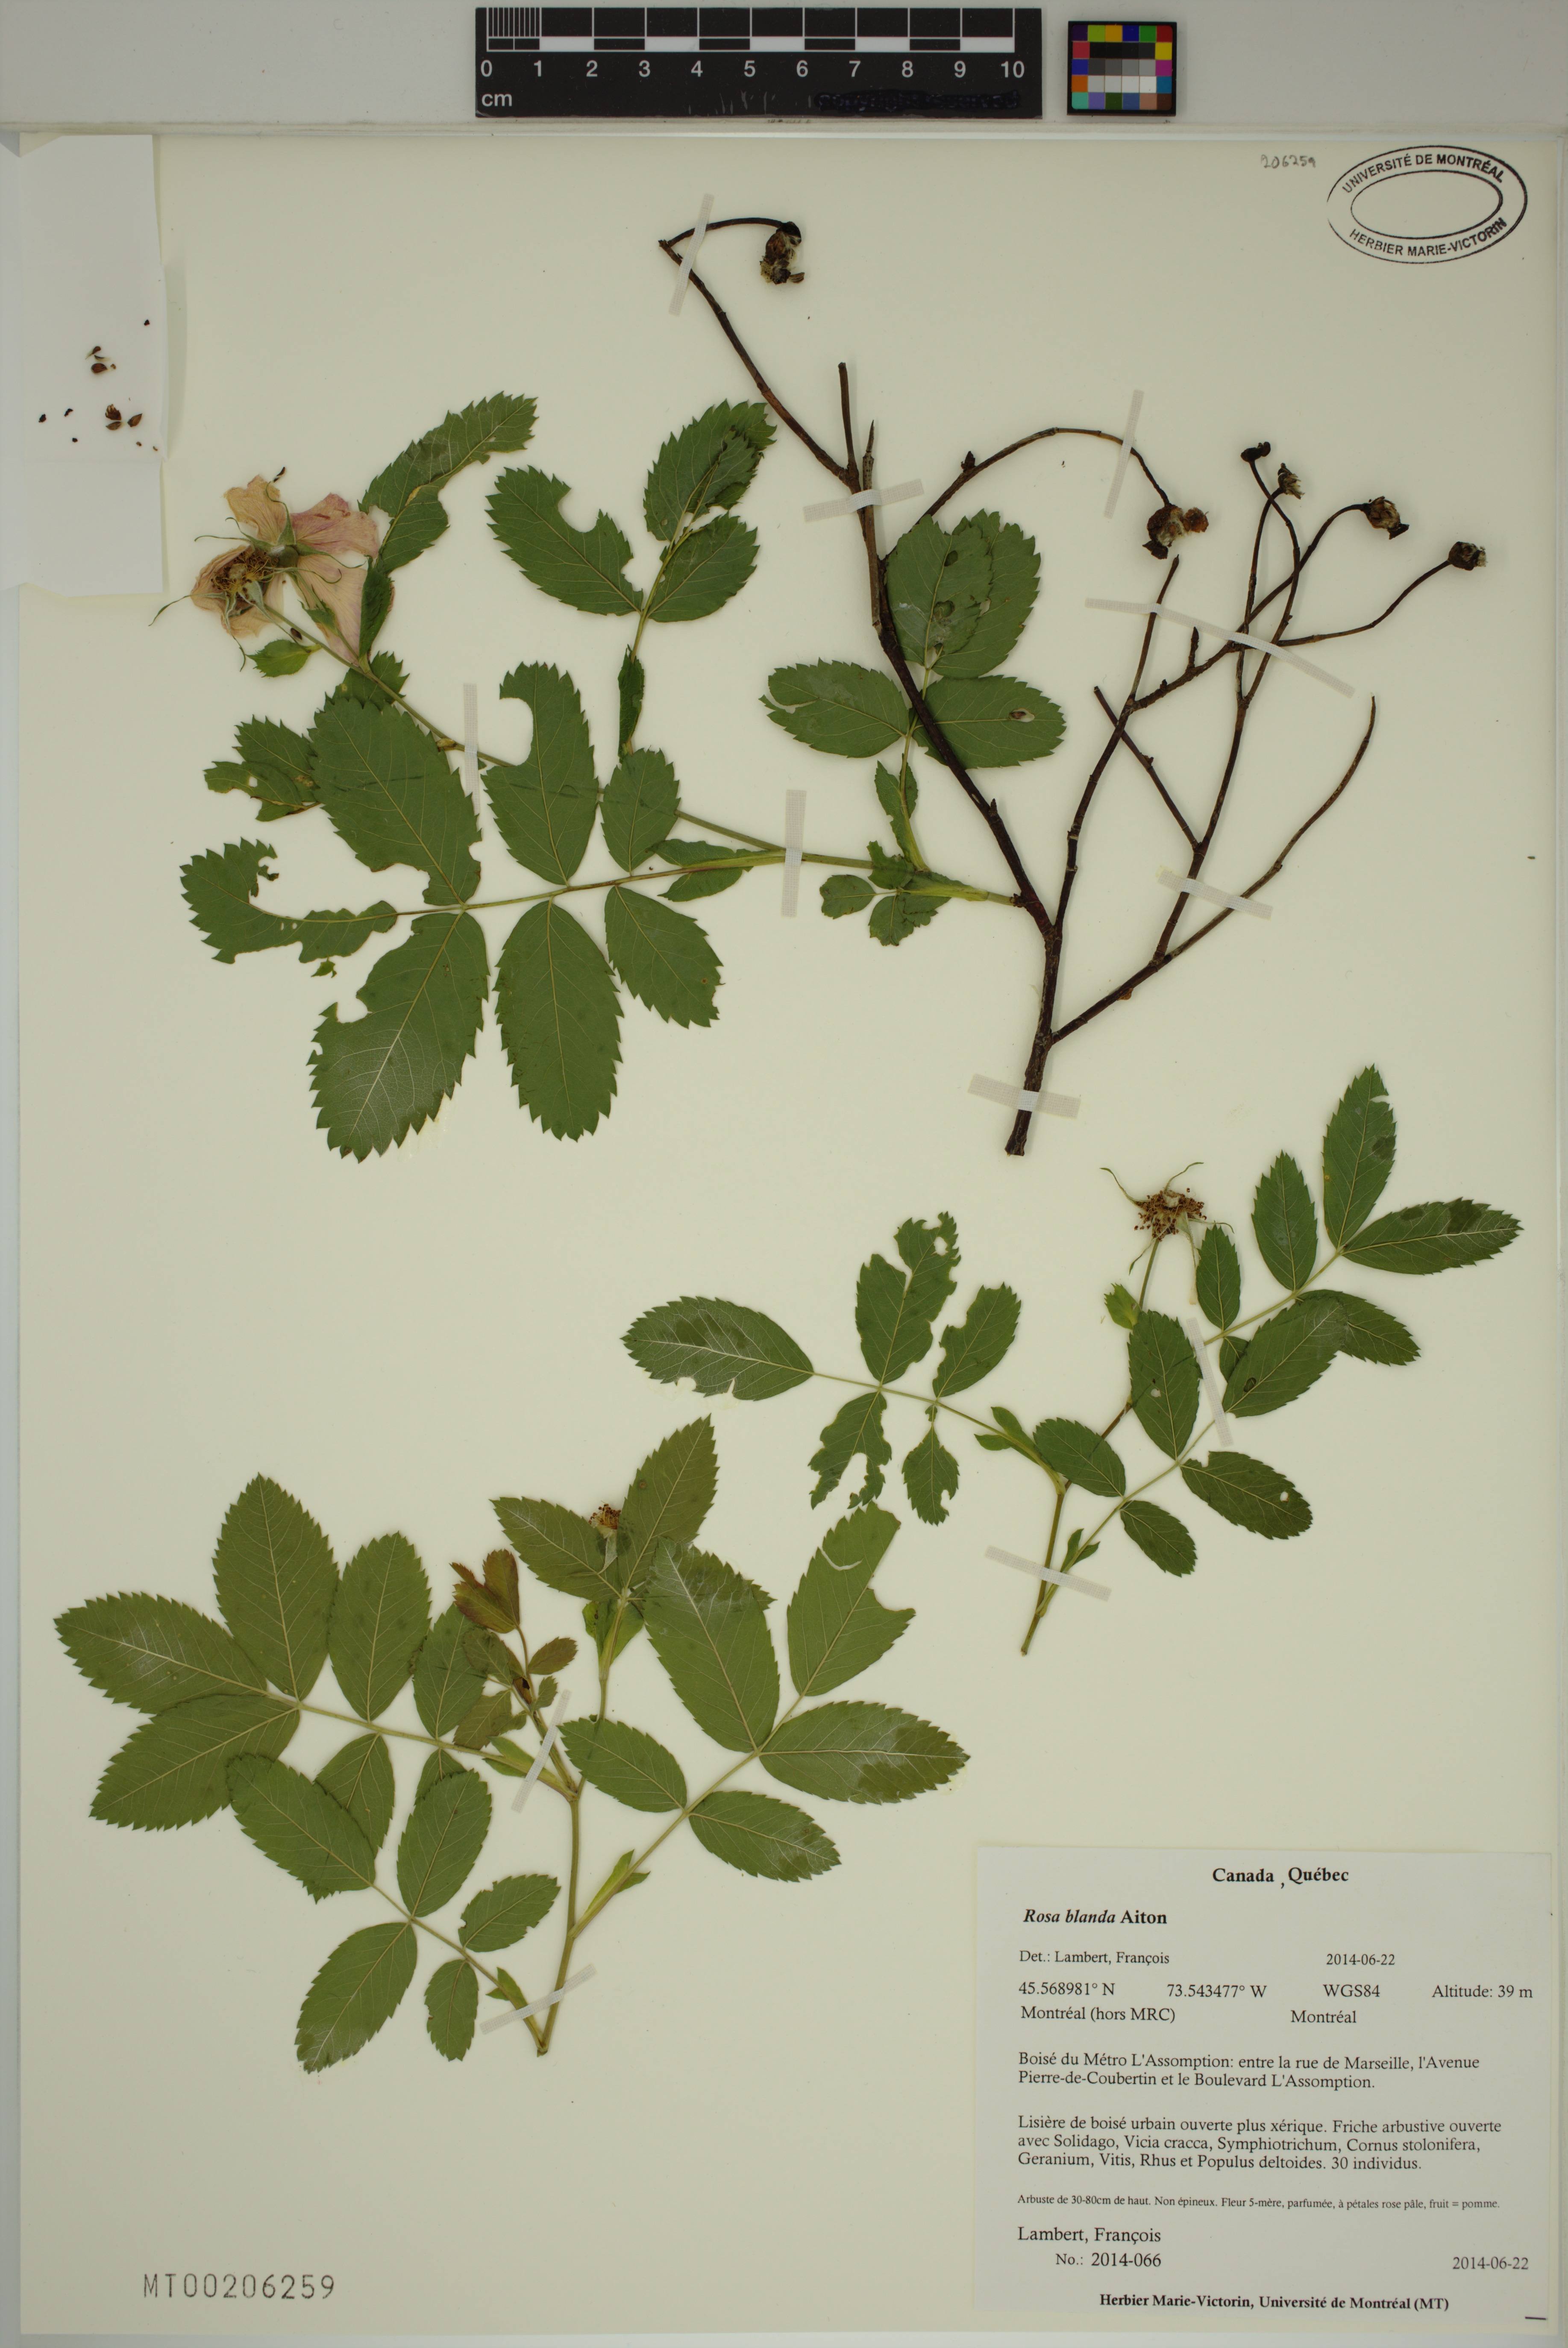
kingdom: Plantae
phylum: Tracheophyta
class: Magnoliopsida
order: Rosales
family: Rosaceae
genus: Rosa
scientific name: Rosa blanda
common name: Smooth rose
